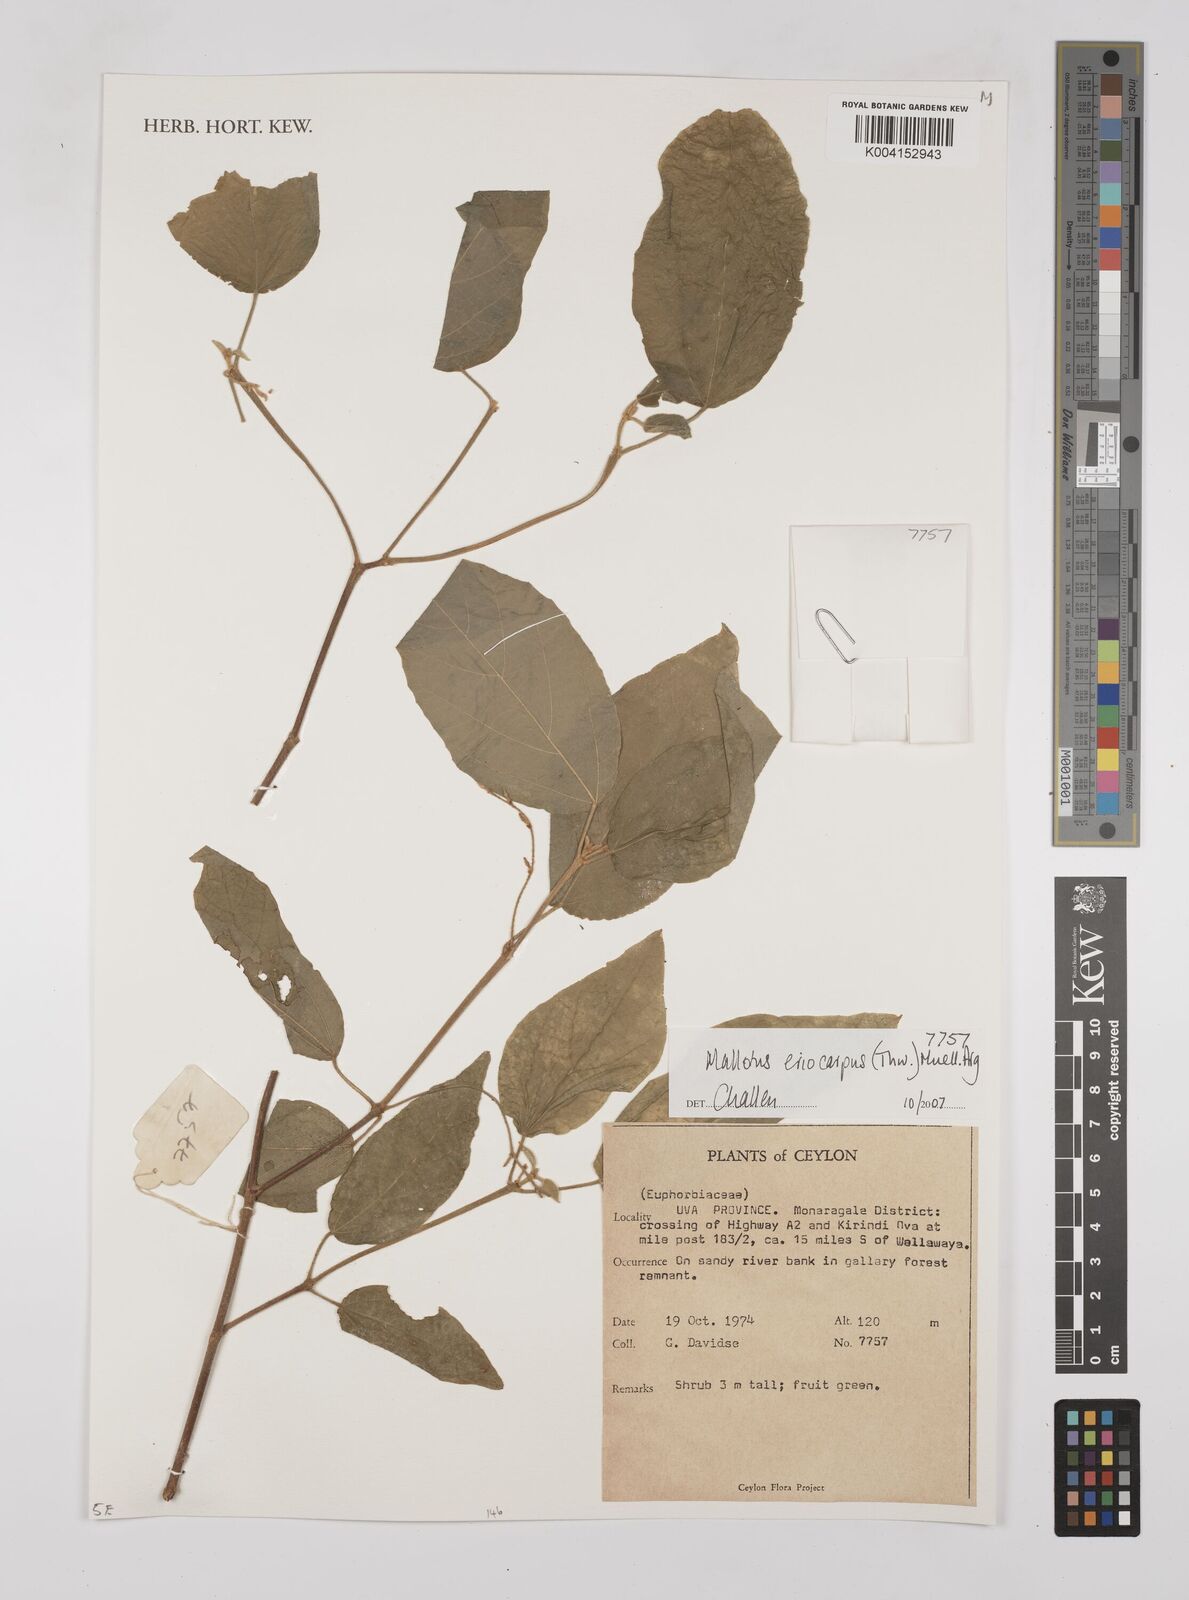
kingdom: Plantae
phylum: Tracheophyta
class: Magnoliopsida
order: Malpighiales
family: Euphorbiaceae
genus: Mallotus
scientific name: Mallotus eriocarpus
